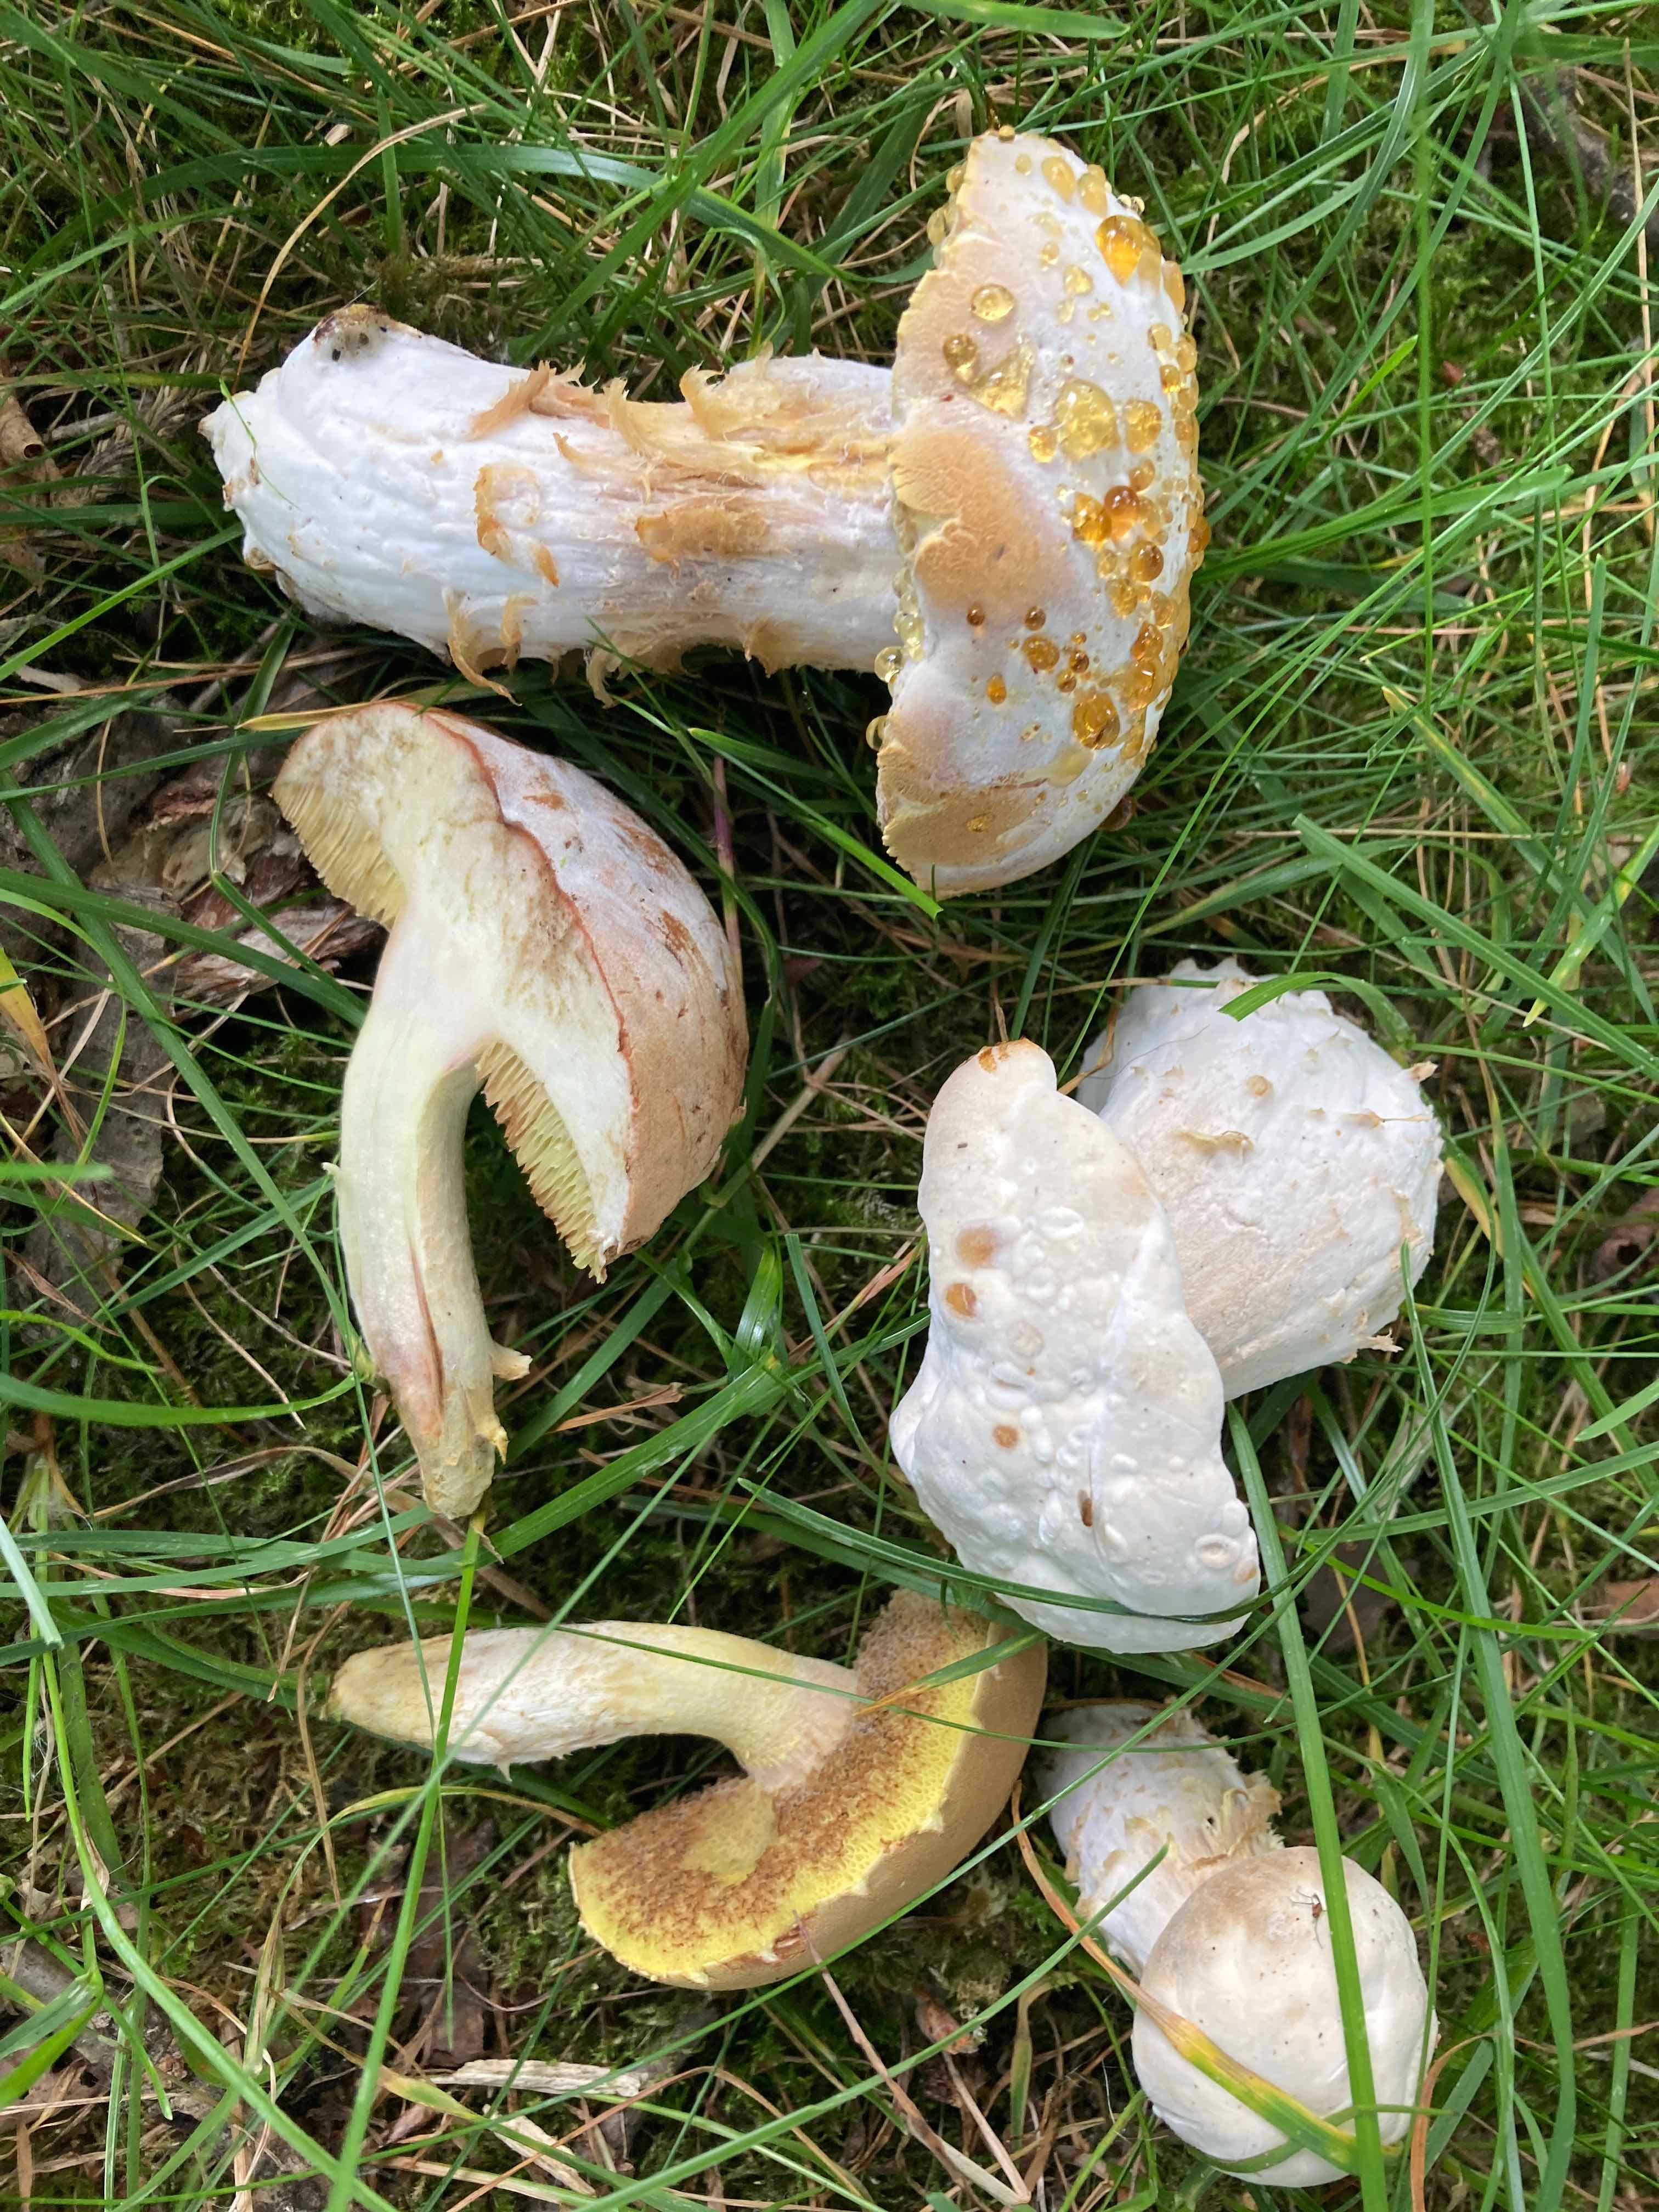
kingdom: Fungi
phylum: Ascomycota
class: Sordariomycetes
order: Hypocreales
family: Hypocreaceae
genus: Hypomyces
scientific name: Hypomyces microspermus
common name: dværgrørhat-snylteskorpe
